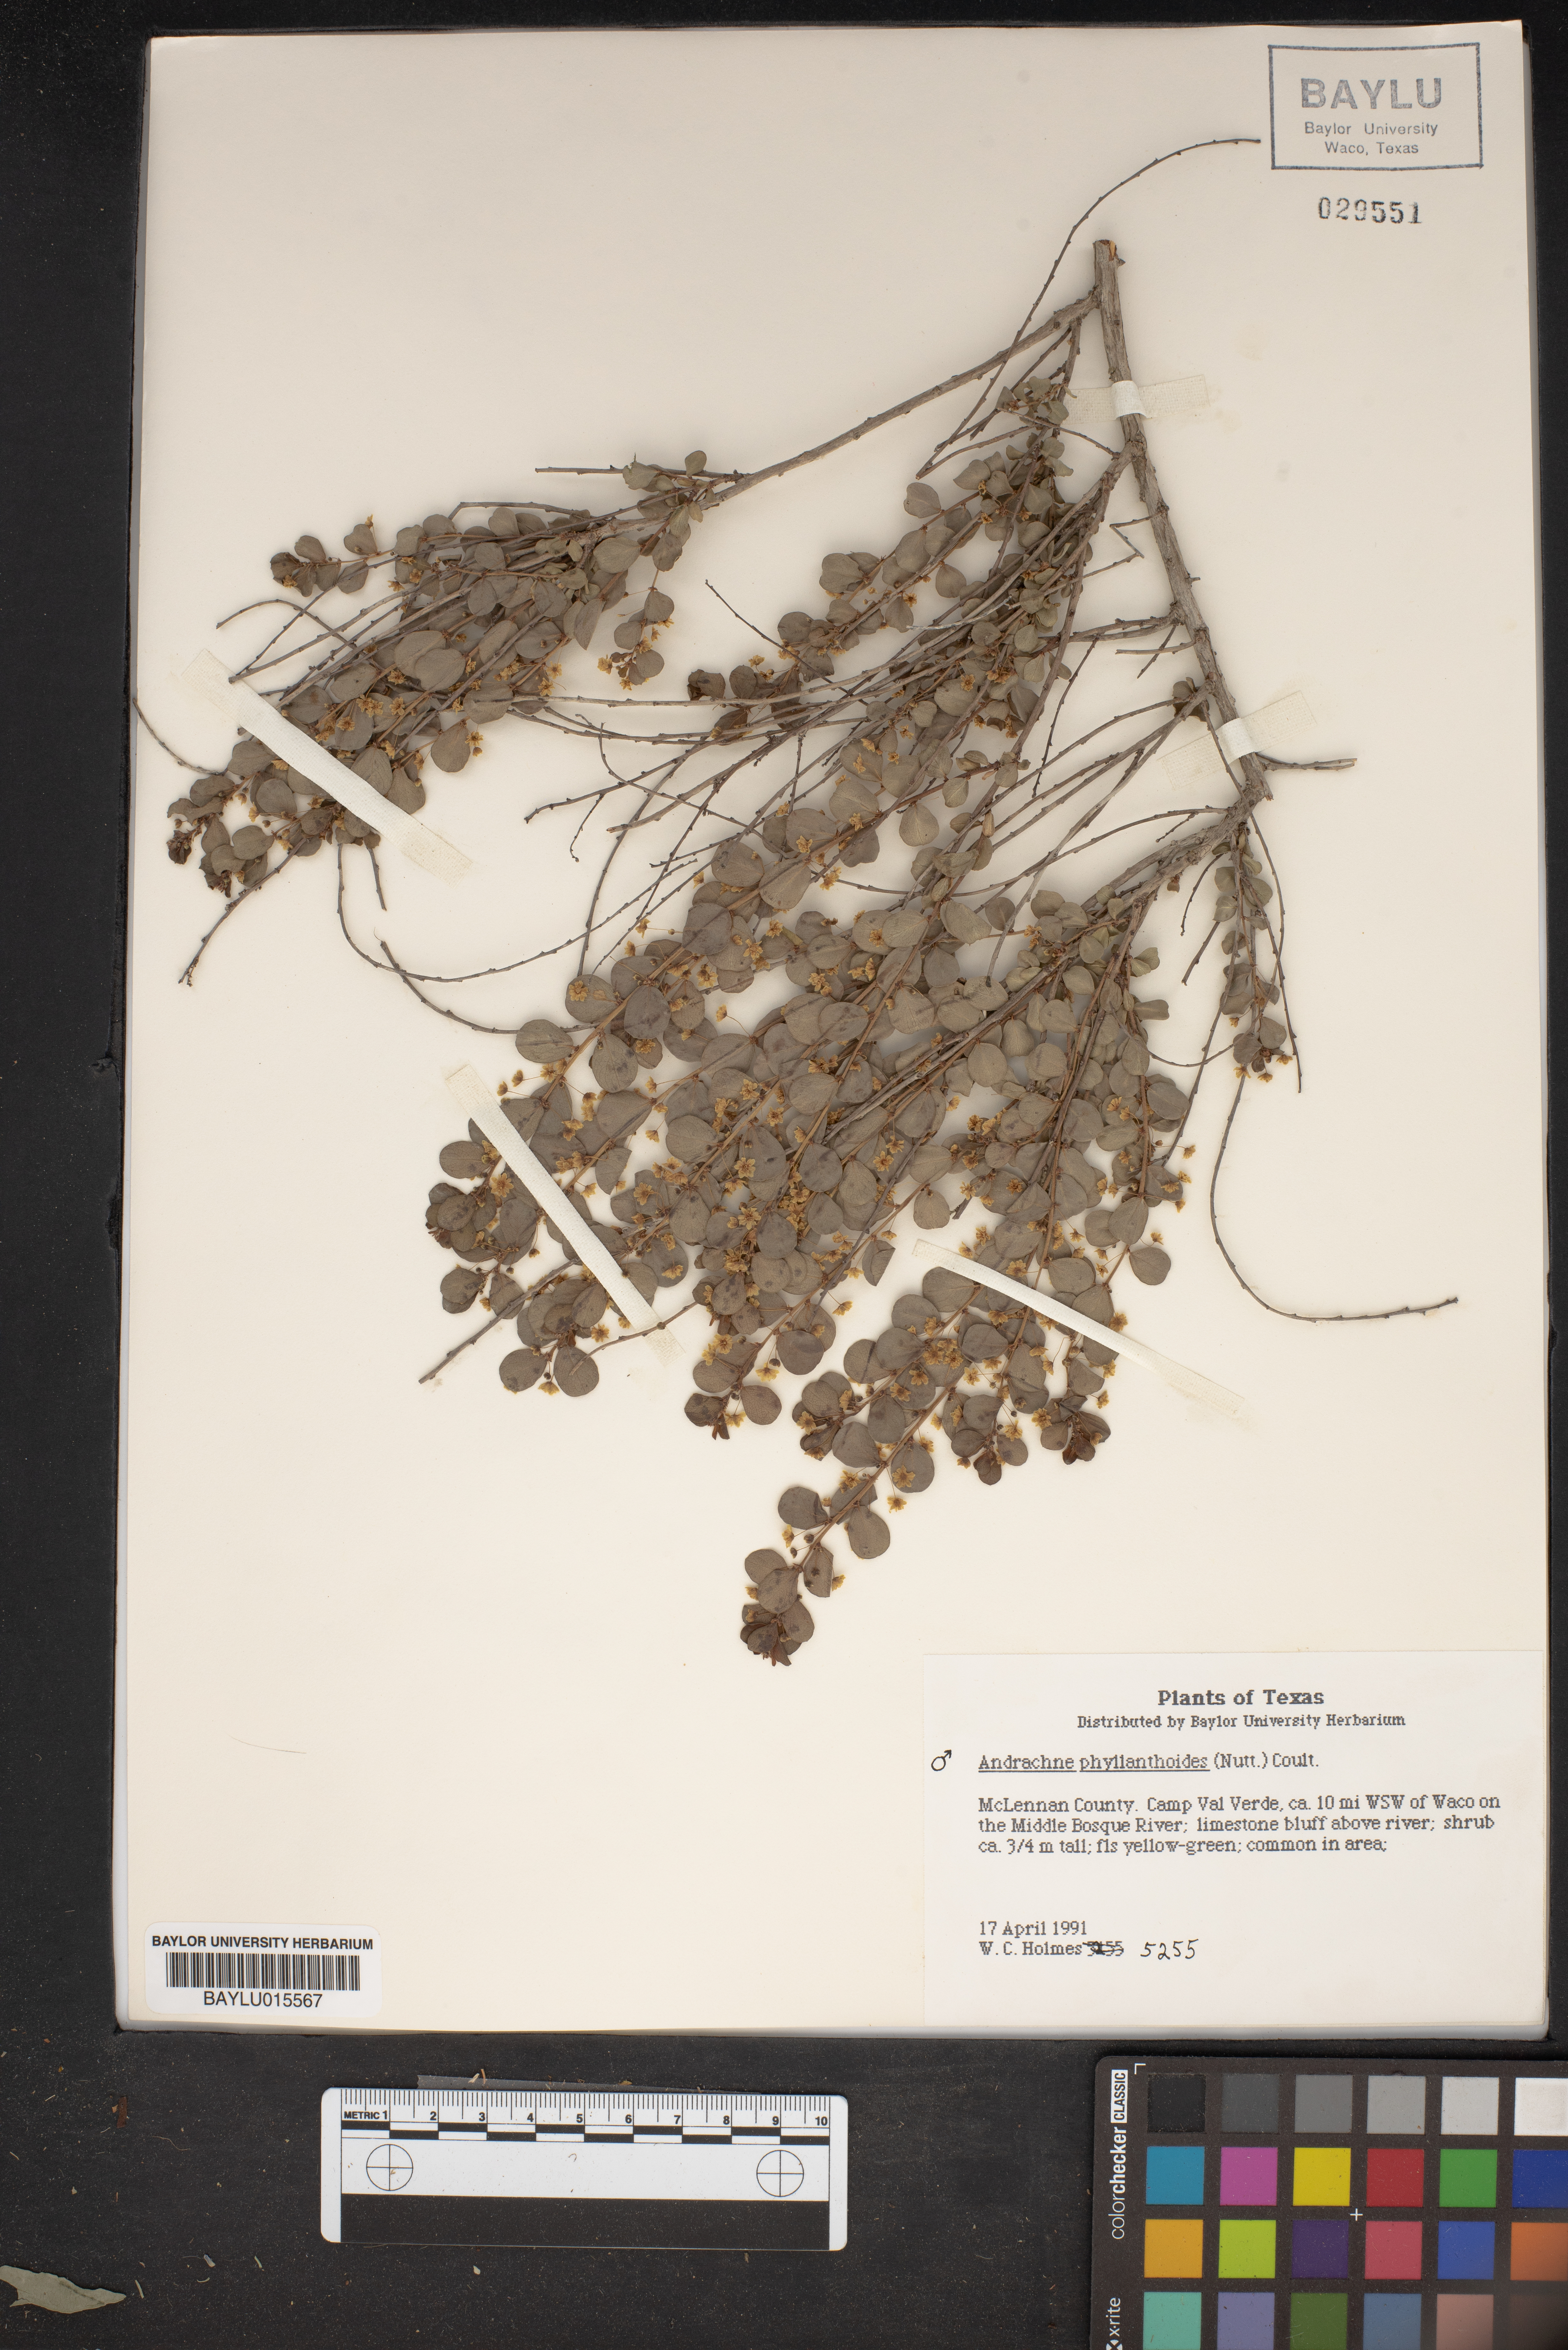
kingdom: Plantae
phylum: Tracheophyta
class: Magnoliopsida
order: Malpighiales
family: Phyllanthaceae
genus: Phyllanthopsis
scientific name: Phyllanthopsis phyllanthoides
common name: Missouri maidenbush
